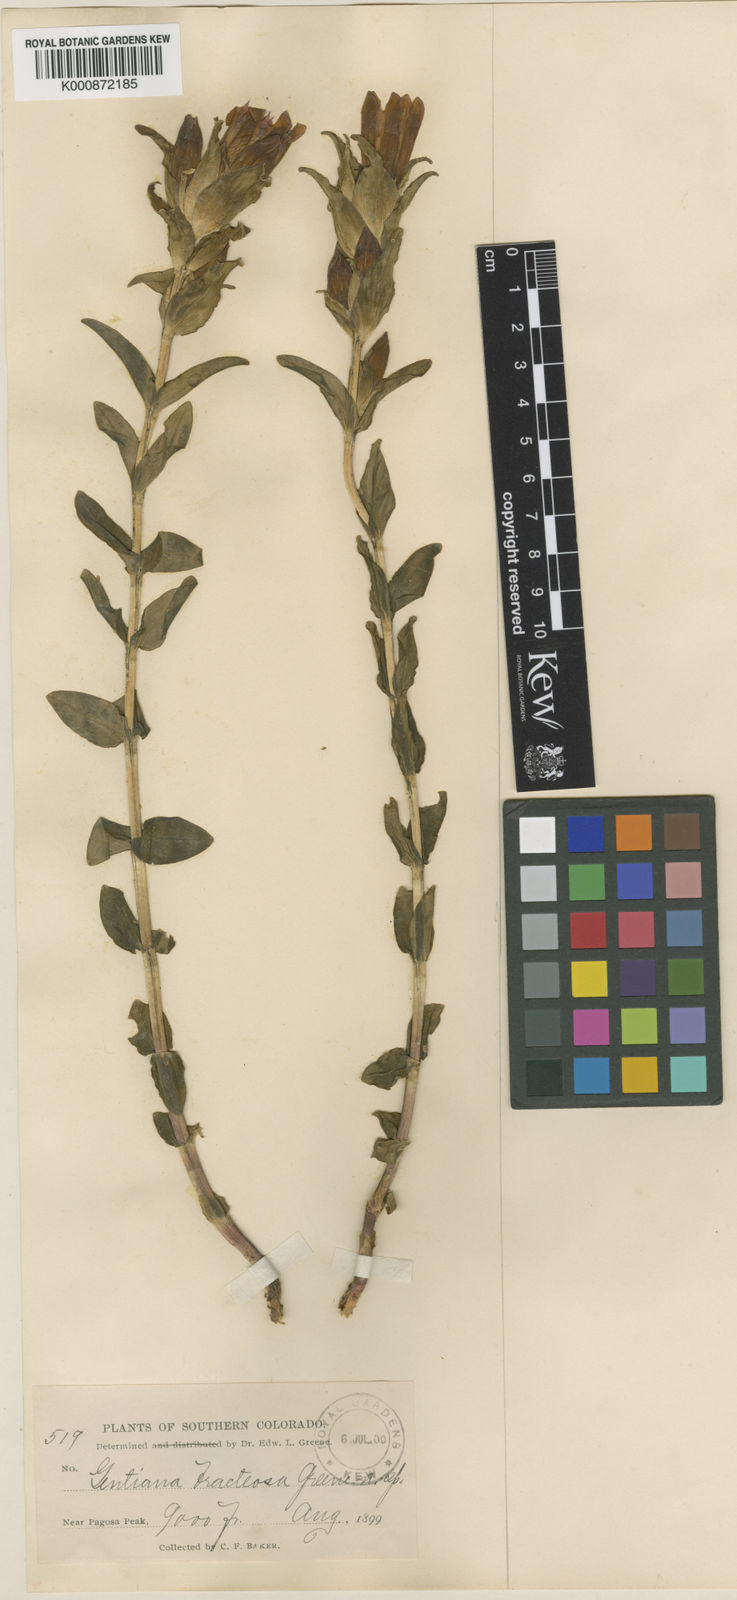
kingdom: Plantae
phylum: Tracheophyta
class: Magnoliopsida
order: Gentianales
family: Gentianaceae
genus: Gentiana
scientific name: Gentiana parryi
